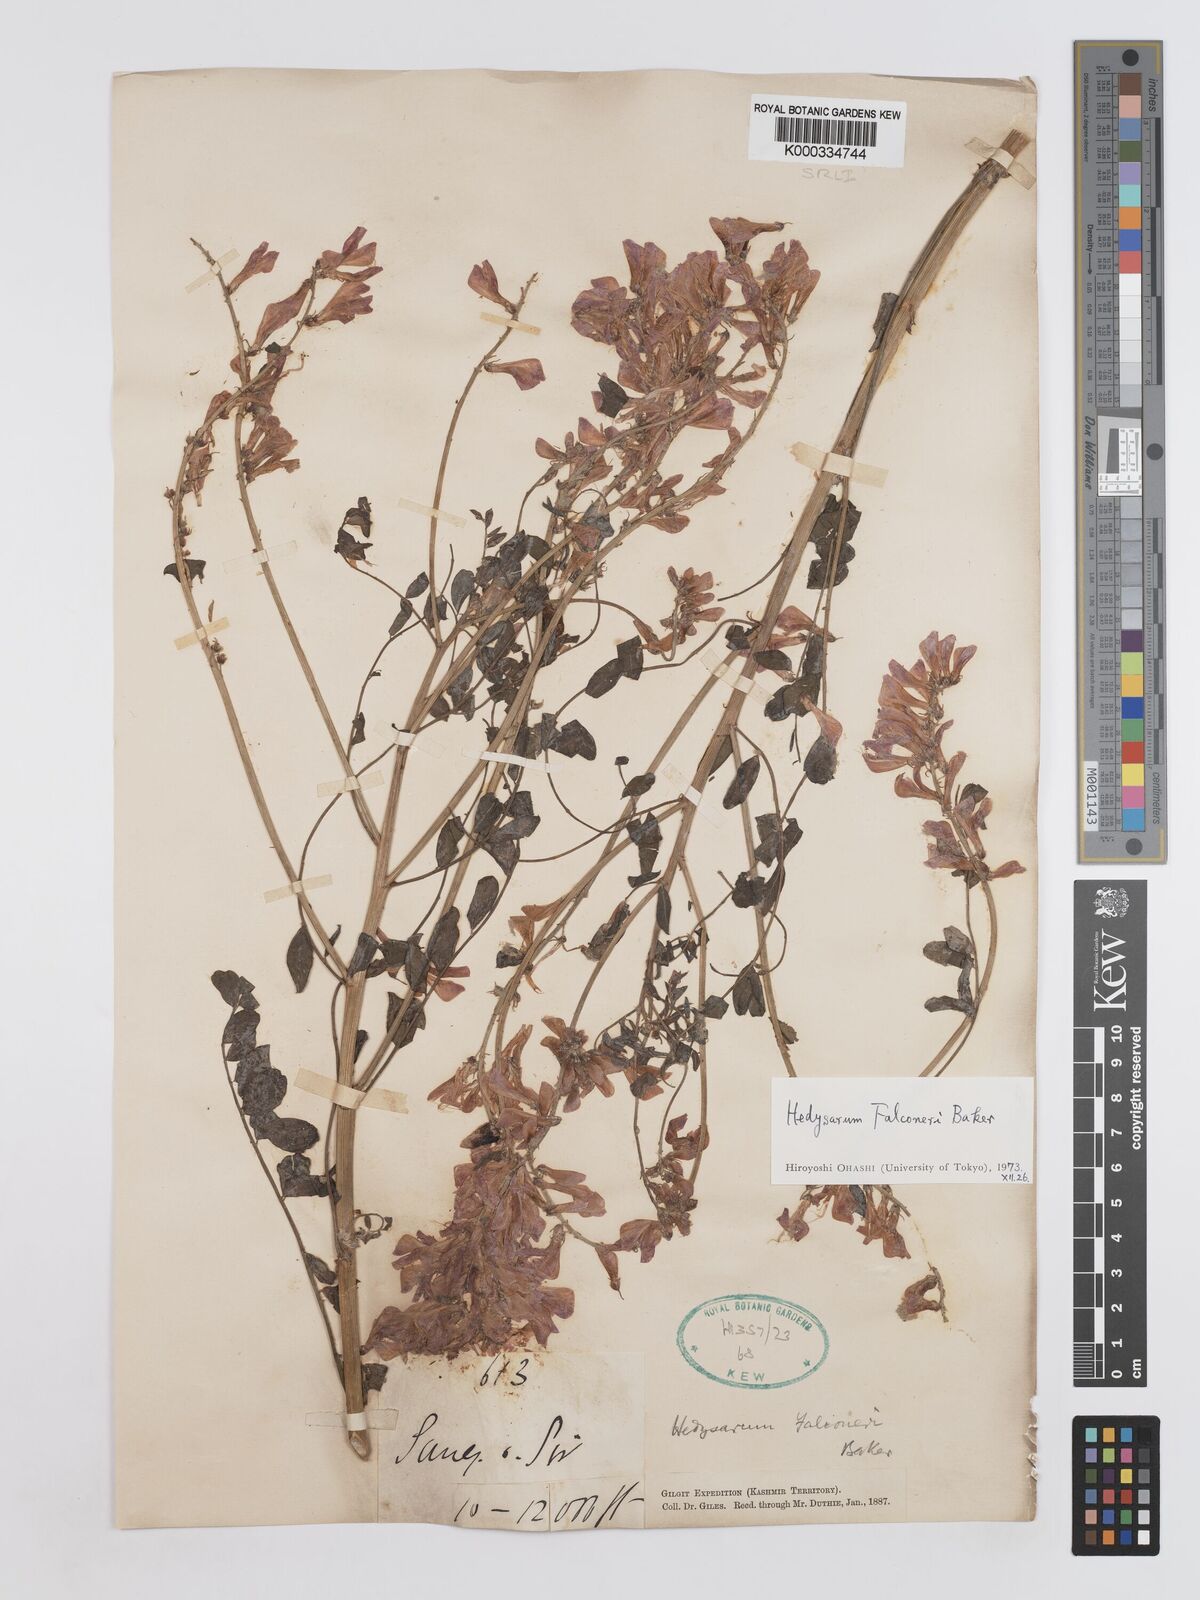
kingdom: Plantae
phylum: Tracheophyta
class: Magnoliopsida
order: Fabales
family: Fabaceae
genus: Hedysarum
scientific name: Hedysarum falconeri
